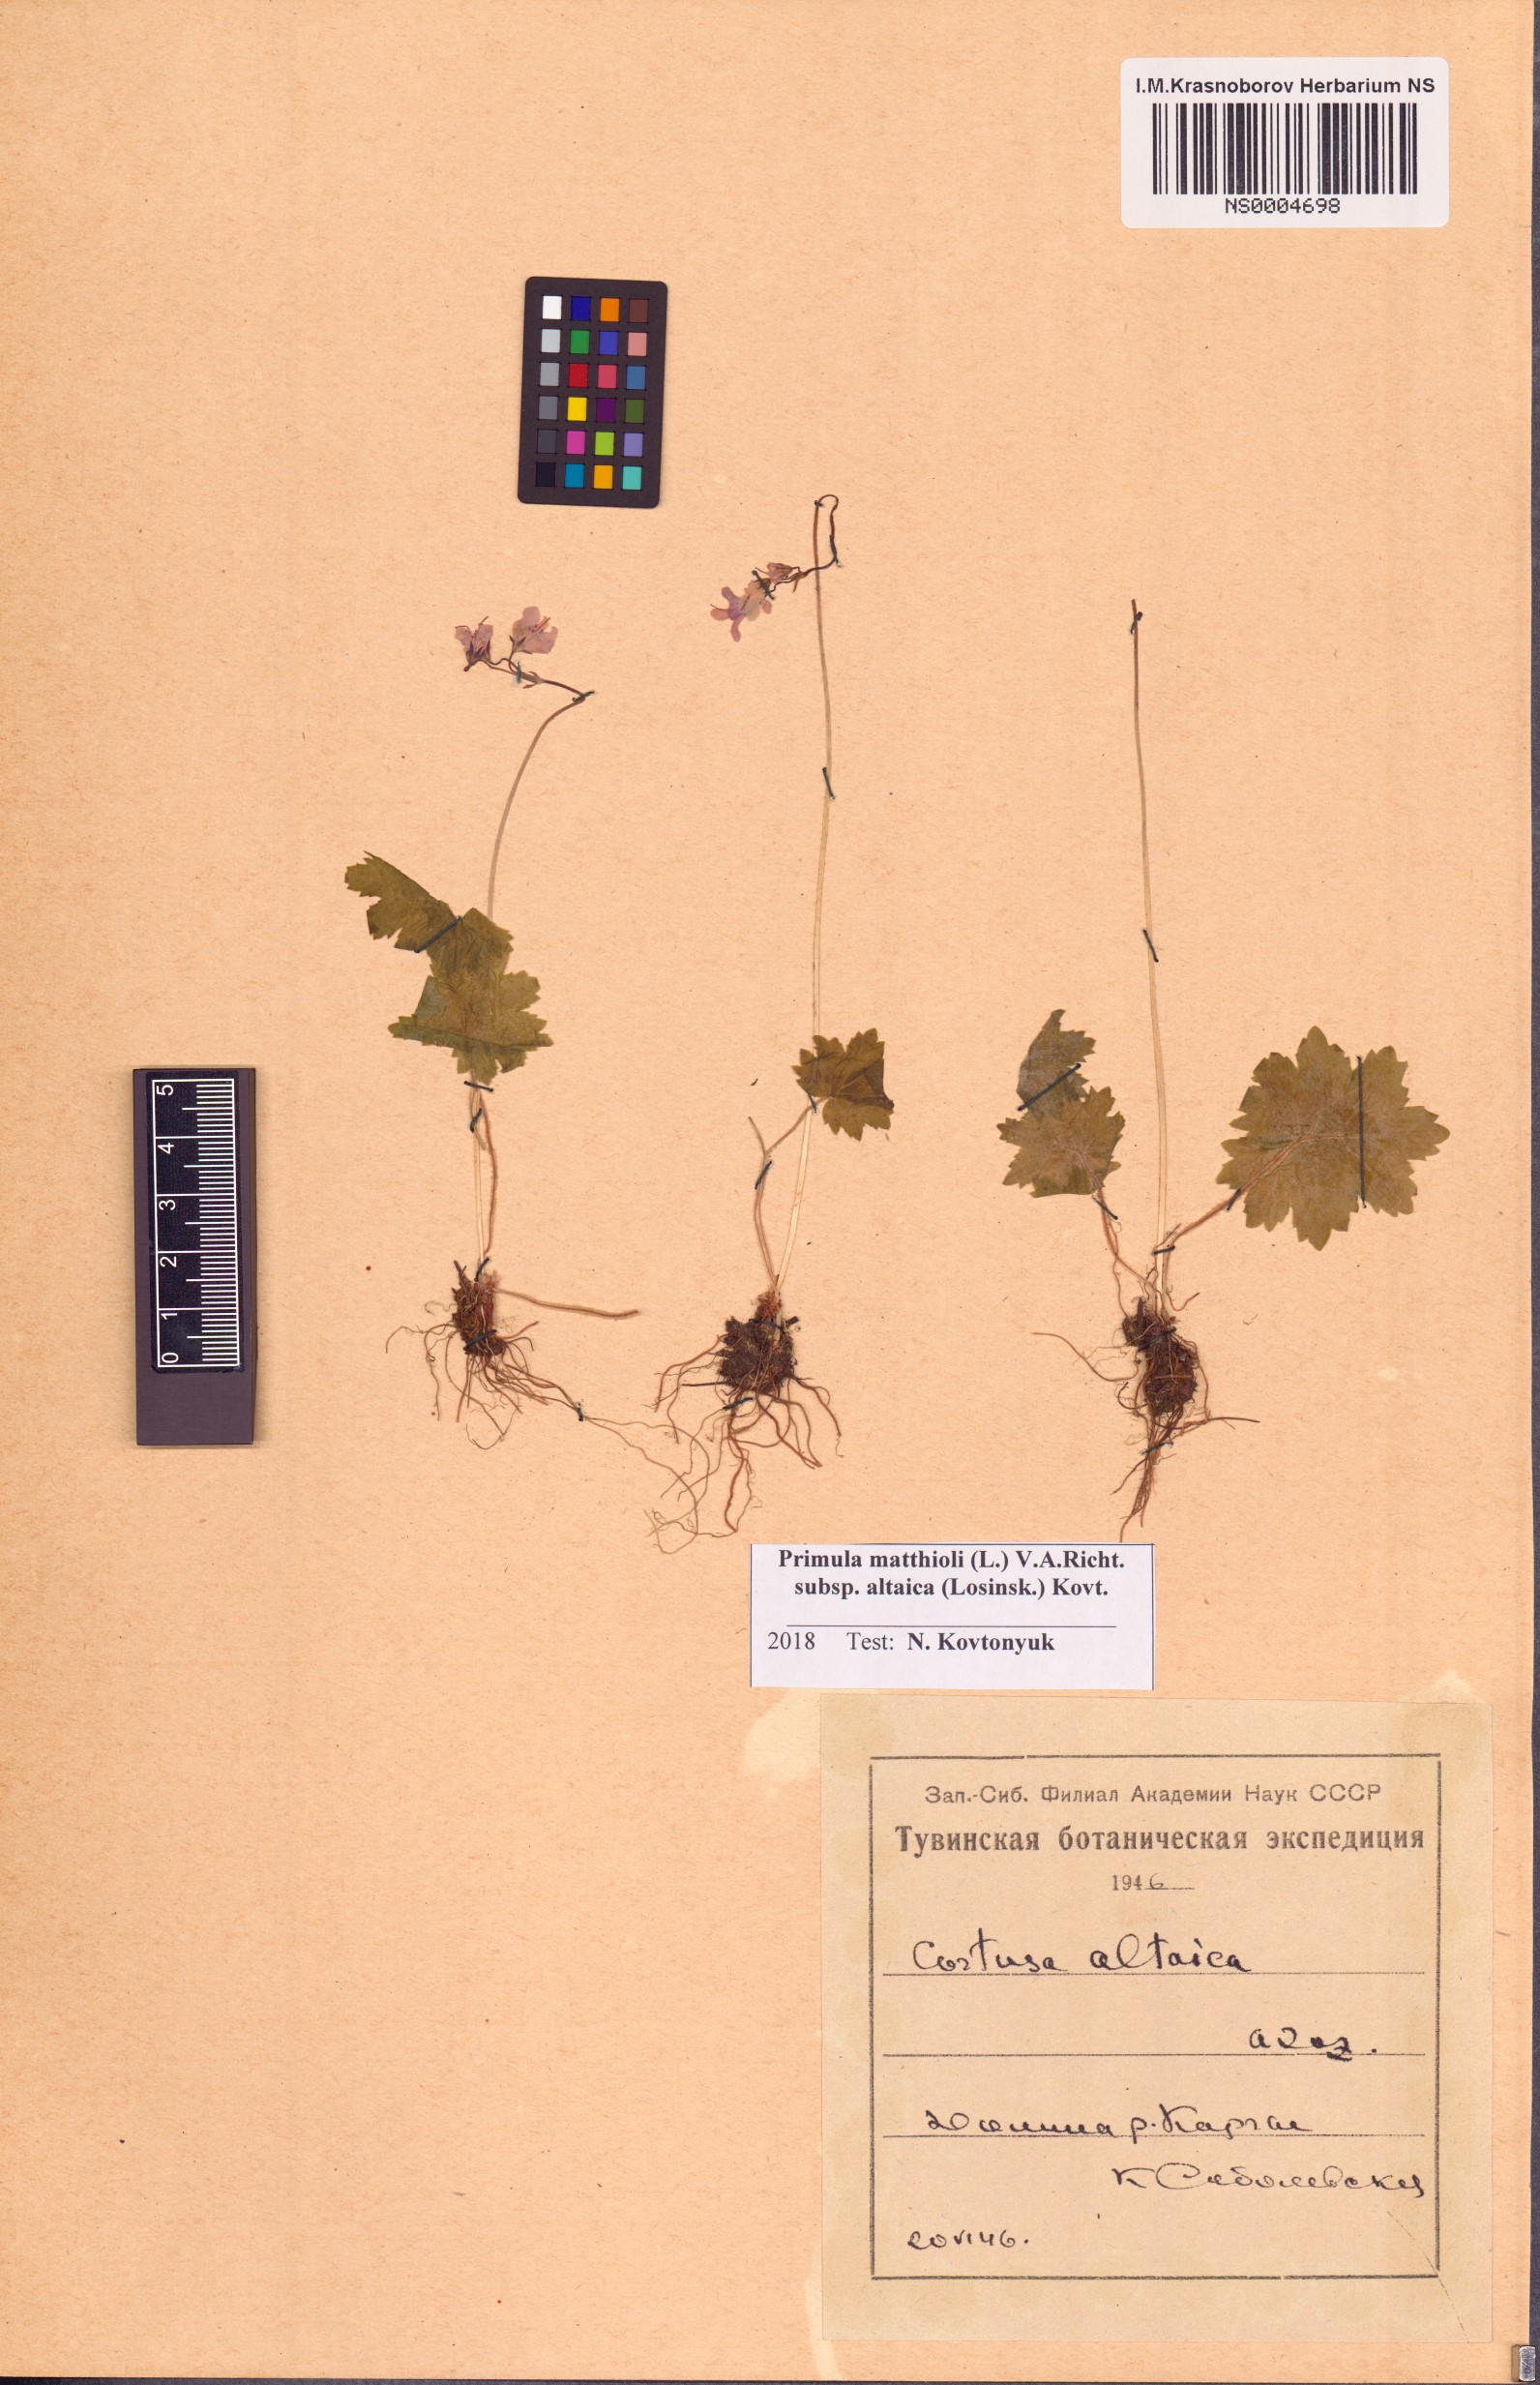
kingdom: Plantae
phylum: Tracheophyta
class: Magnoliopsida
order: Ericales
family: Primulaceae
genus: Primula
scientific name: Primula matthioli
